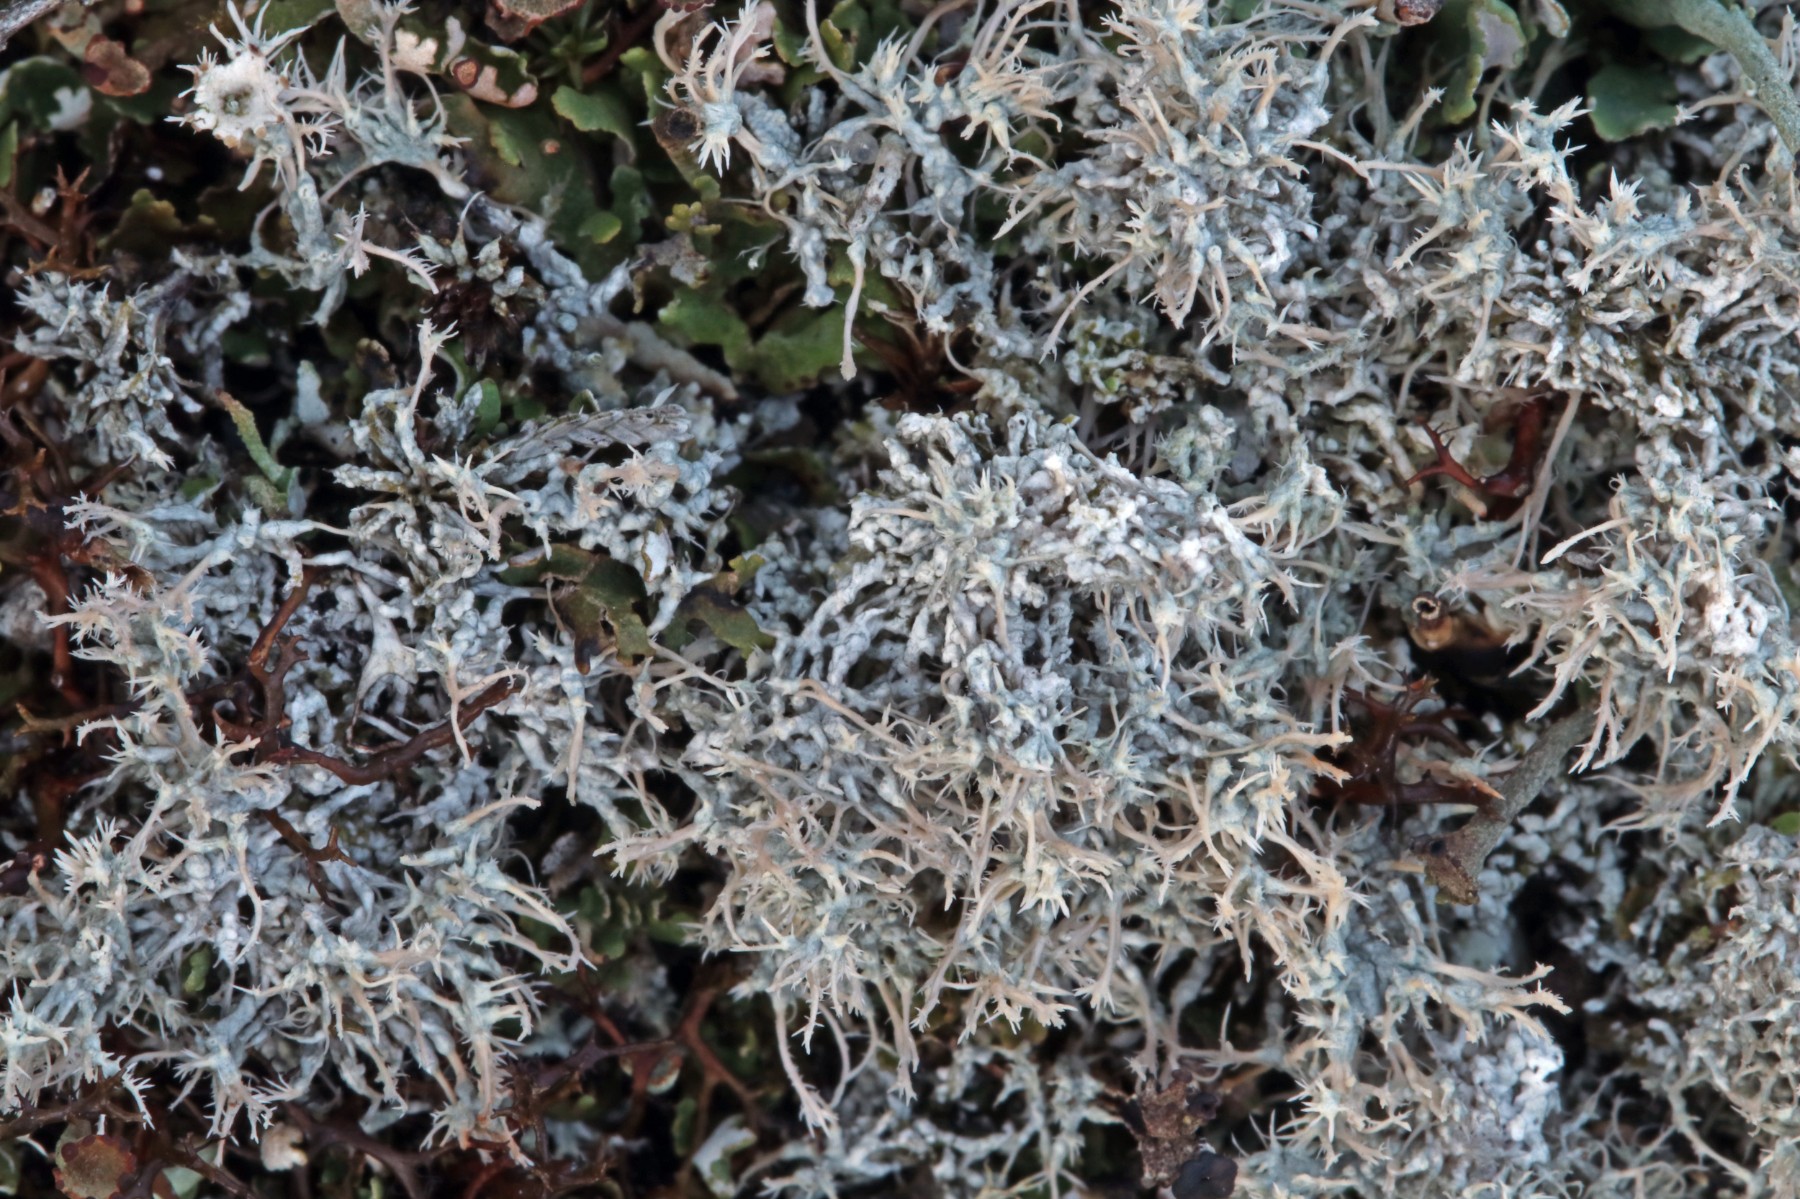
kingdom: Fungi
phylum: Ascomycota
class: Lecanoromycetes
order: Pertusariales
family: Ochrolechiaceae
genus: Ochrolechia
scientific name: Ochrolechia frigida
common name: fjeld-blegskivelav
